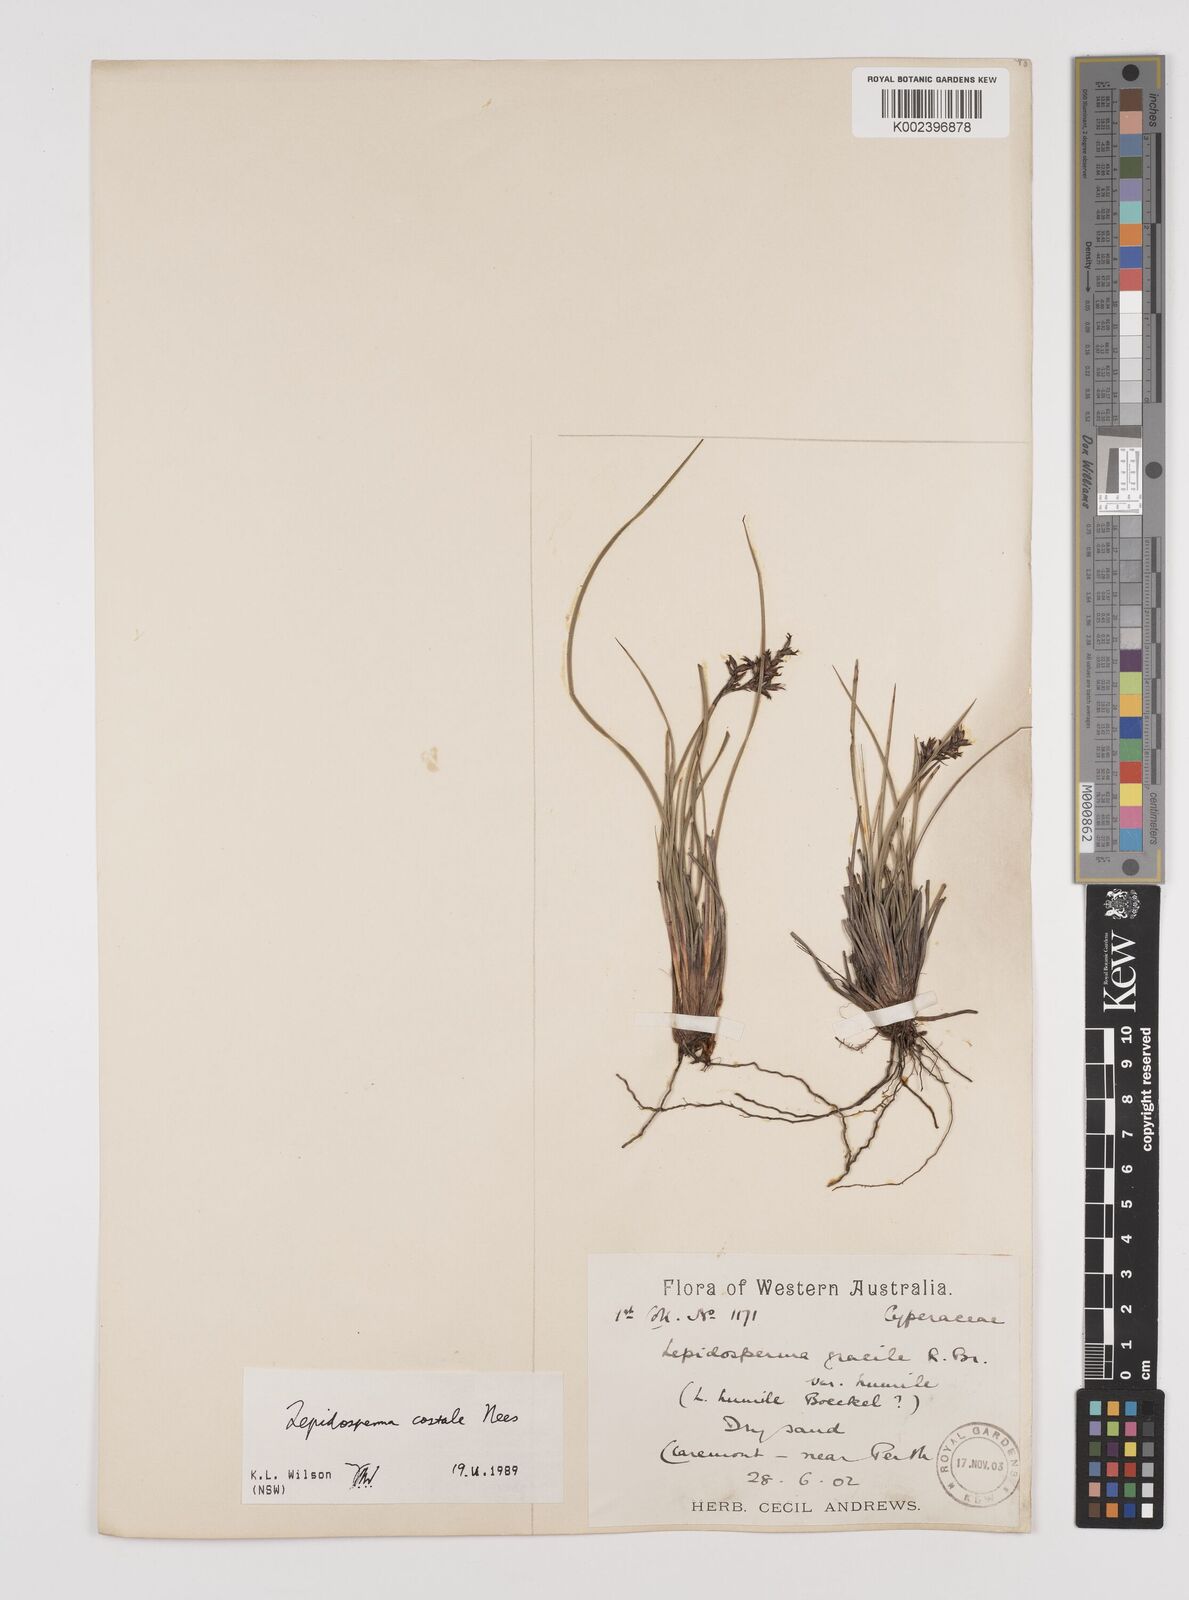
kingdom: Plantae
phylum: Tracheophyta
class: Liliopsida
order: Poales
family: Cyperaceae
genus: Lepidosperma
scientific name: Lepidosperma costale
